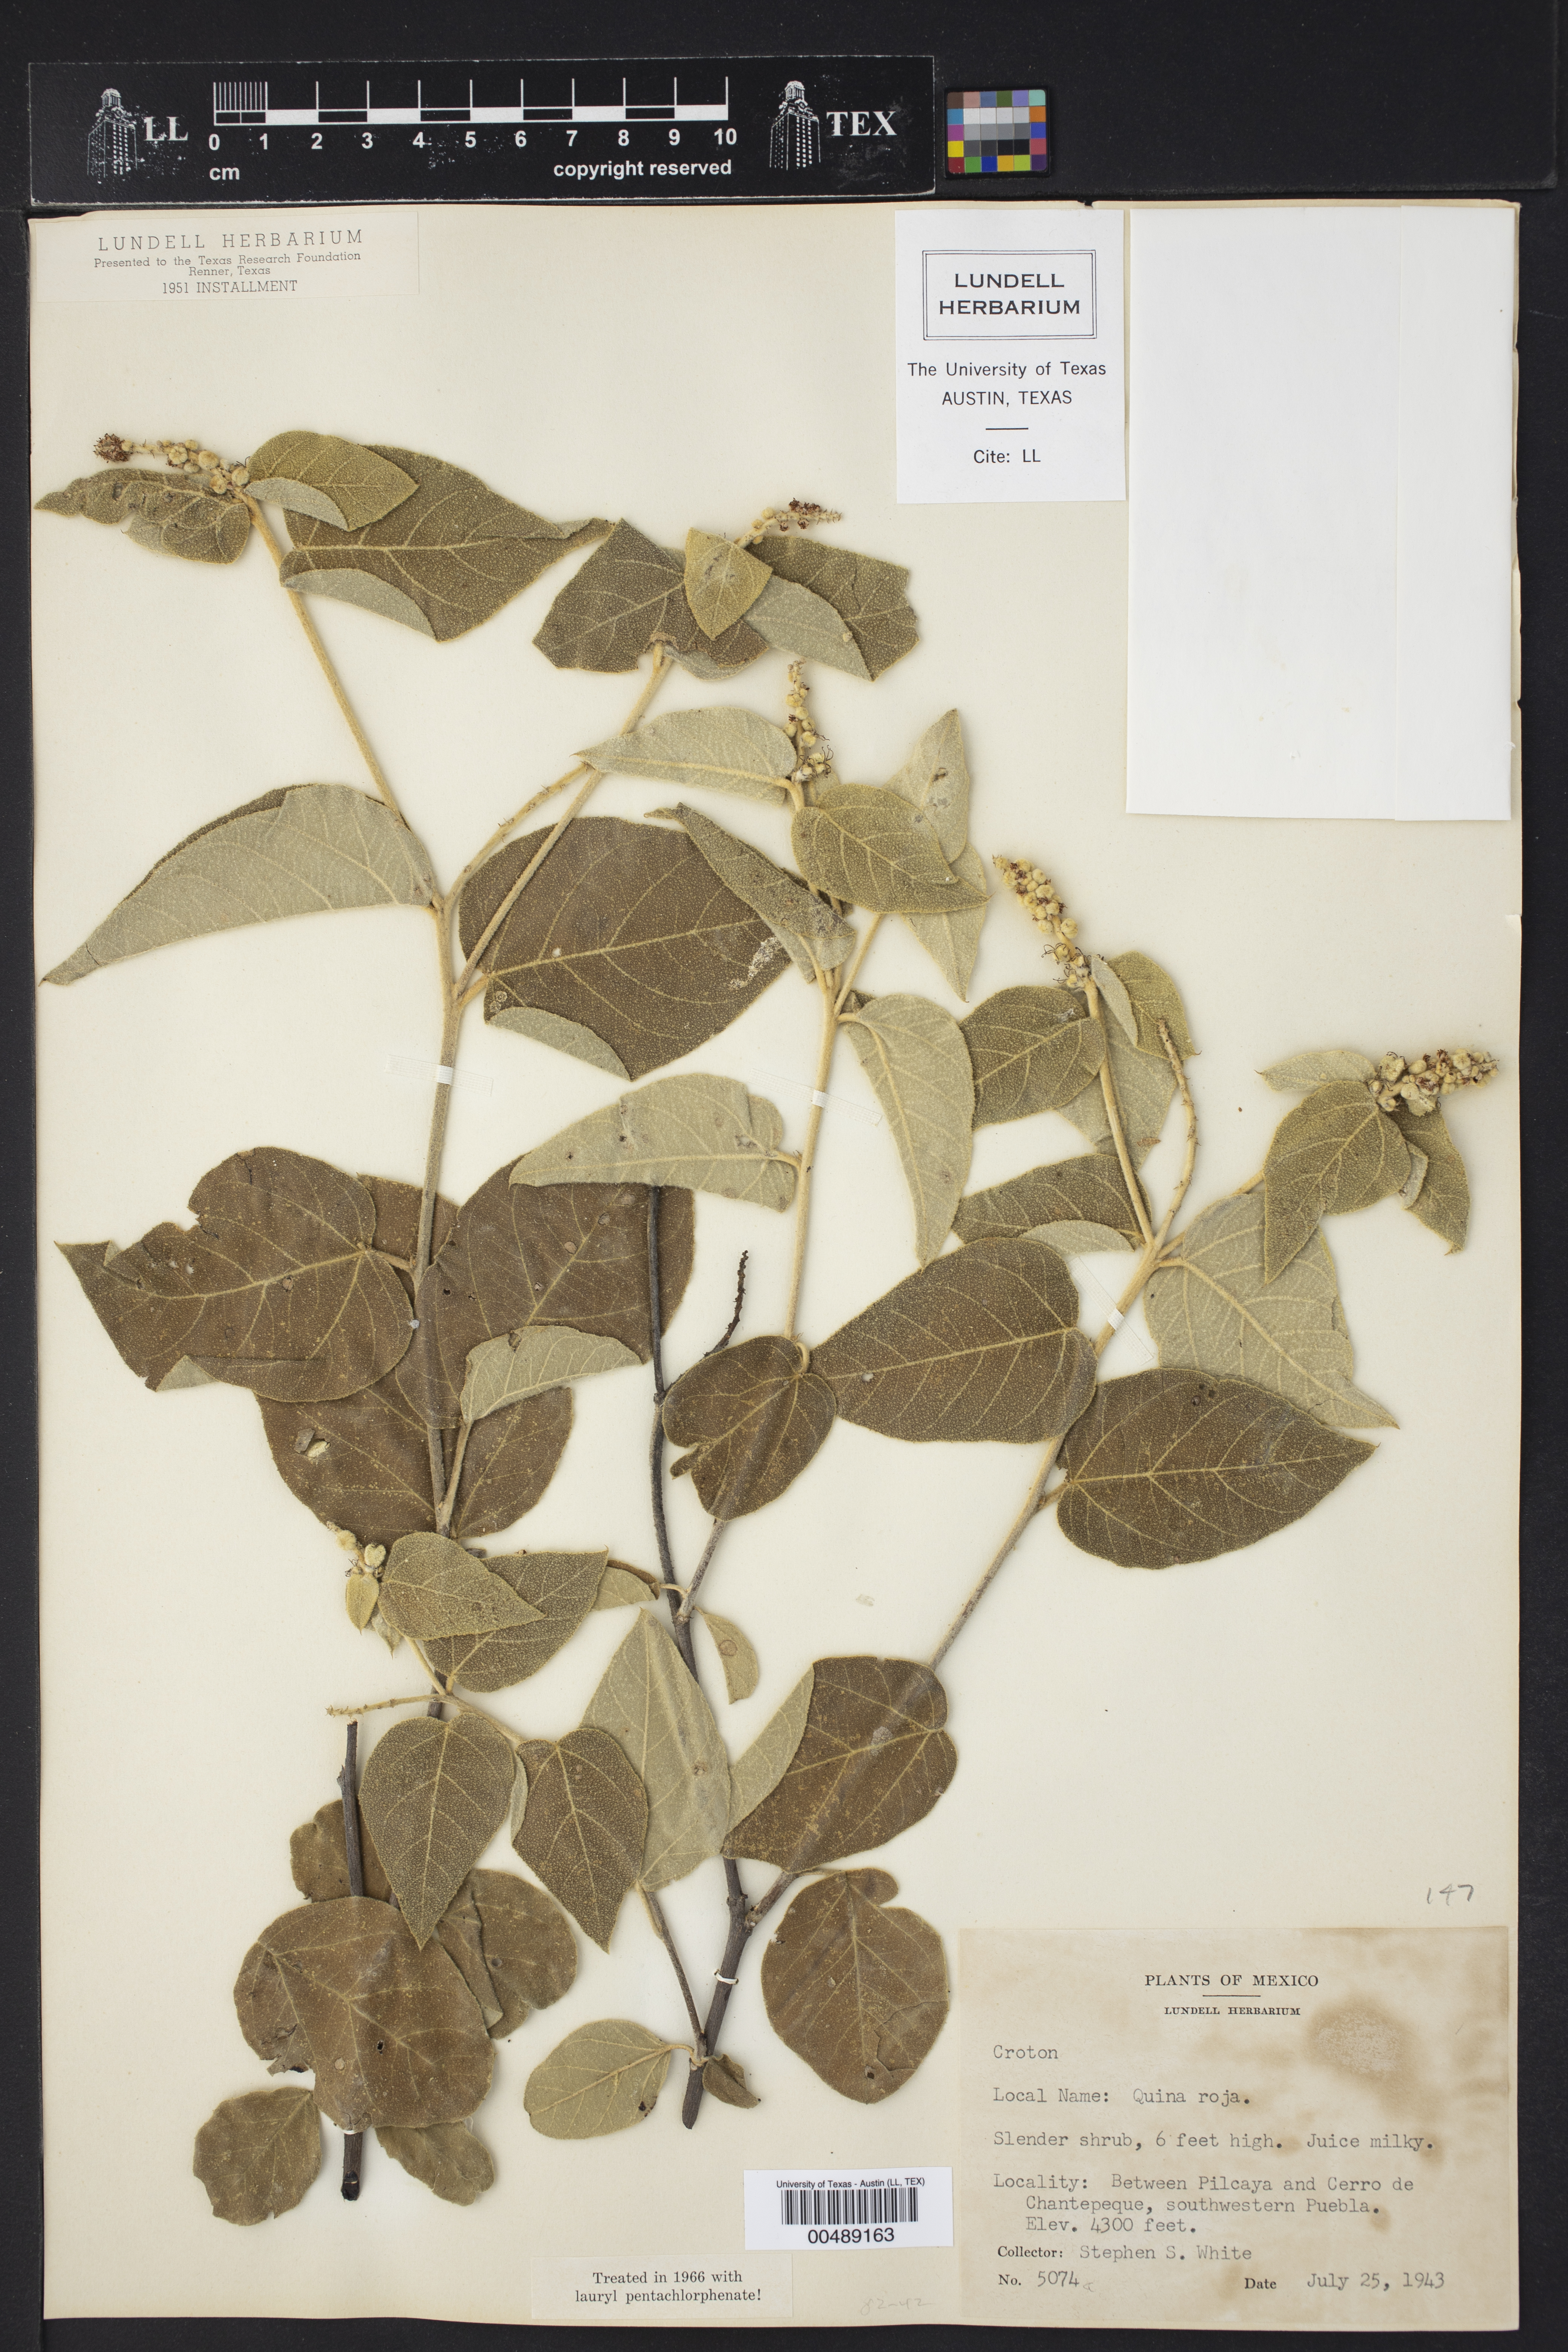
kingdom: Plantae
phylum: Tracheophyta
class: Magnoliopsida
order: Malpighiales
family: Euphorbiaceae
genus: Croton
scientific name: Croton
